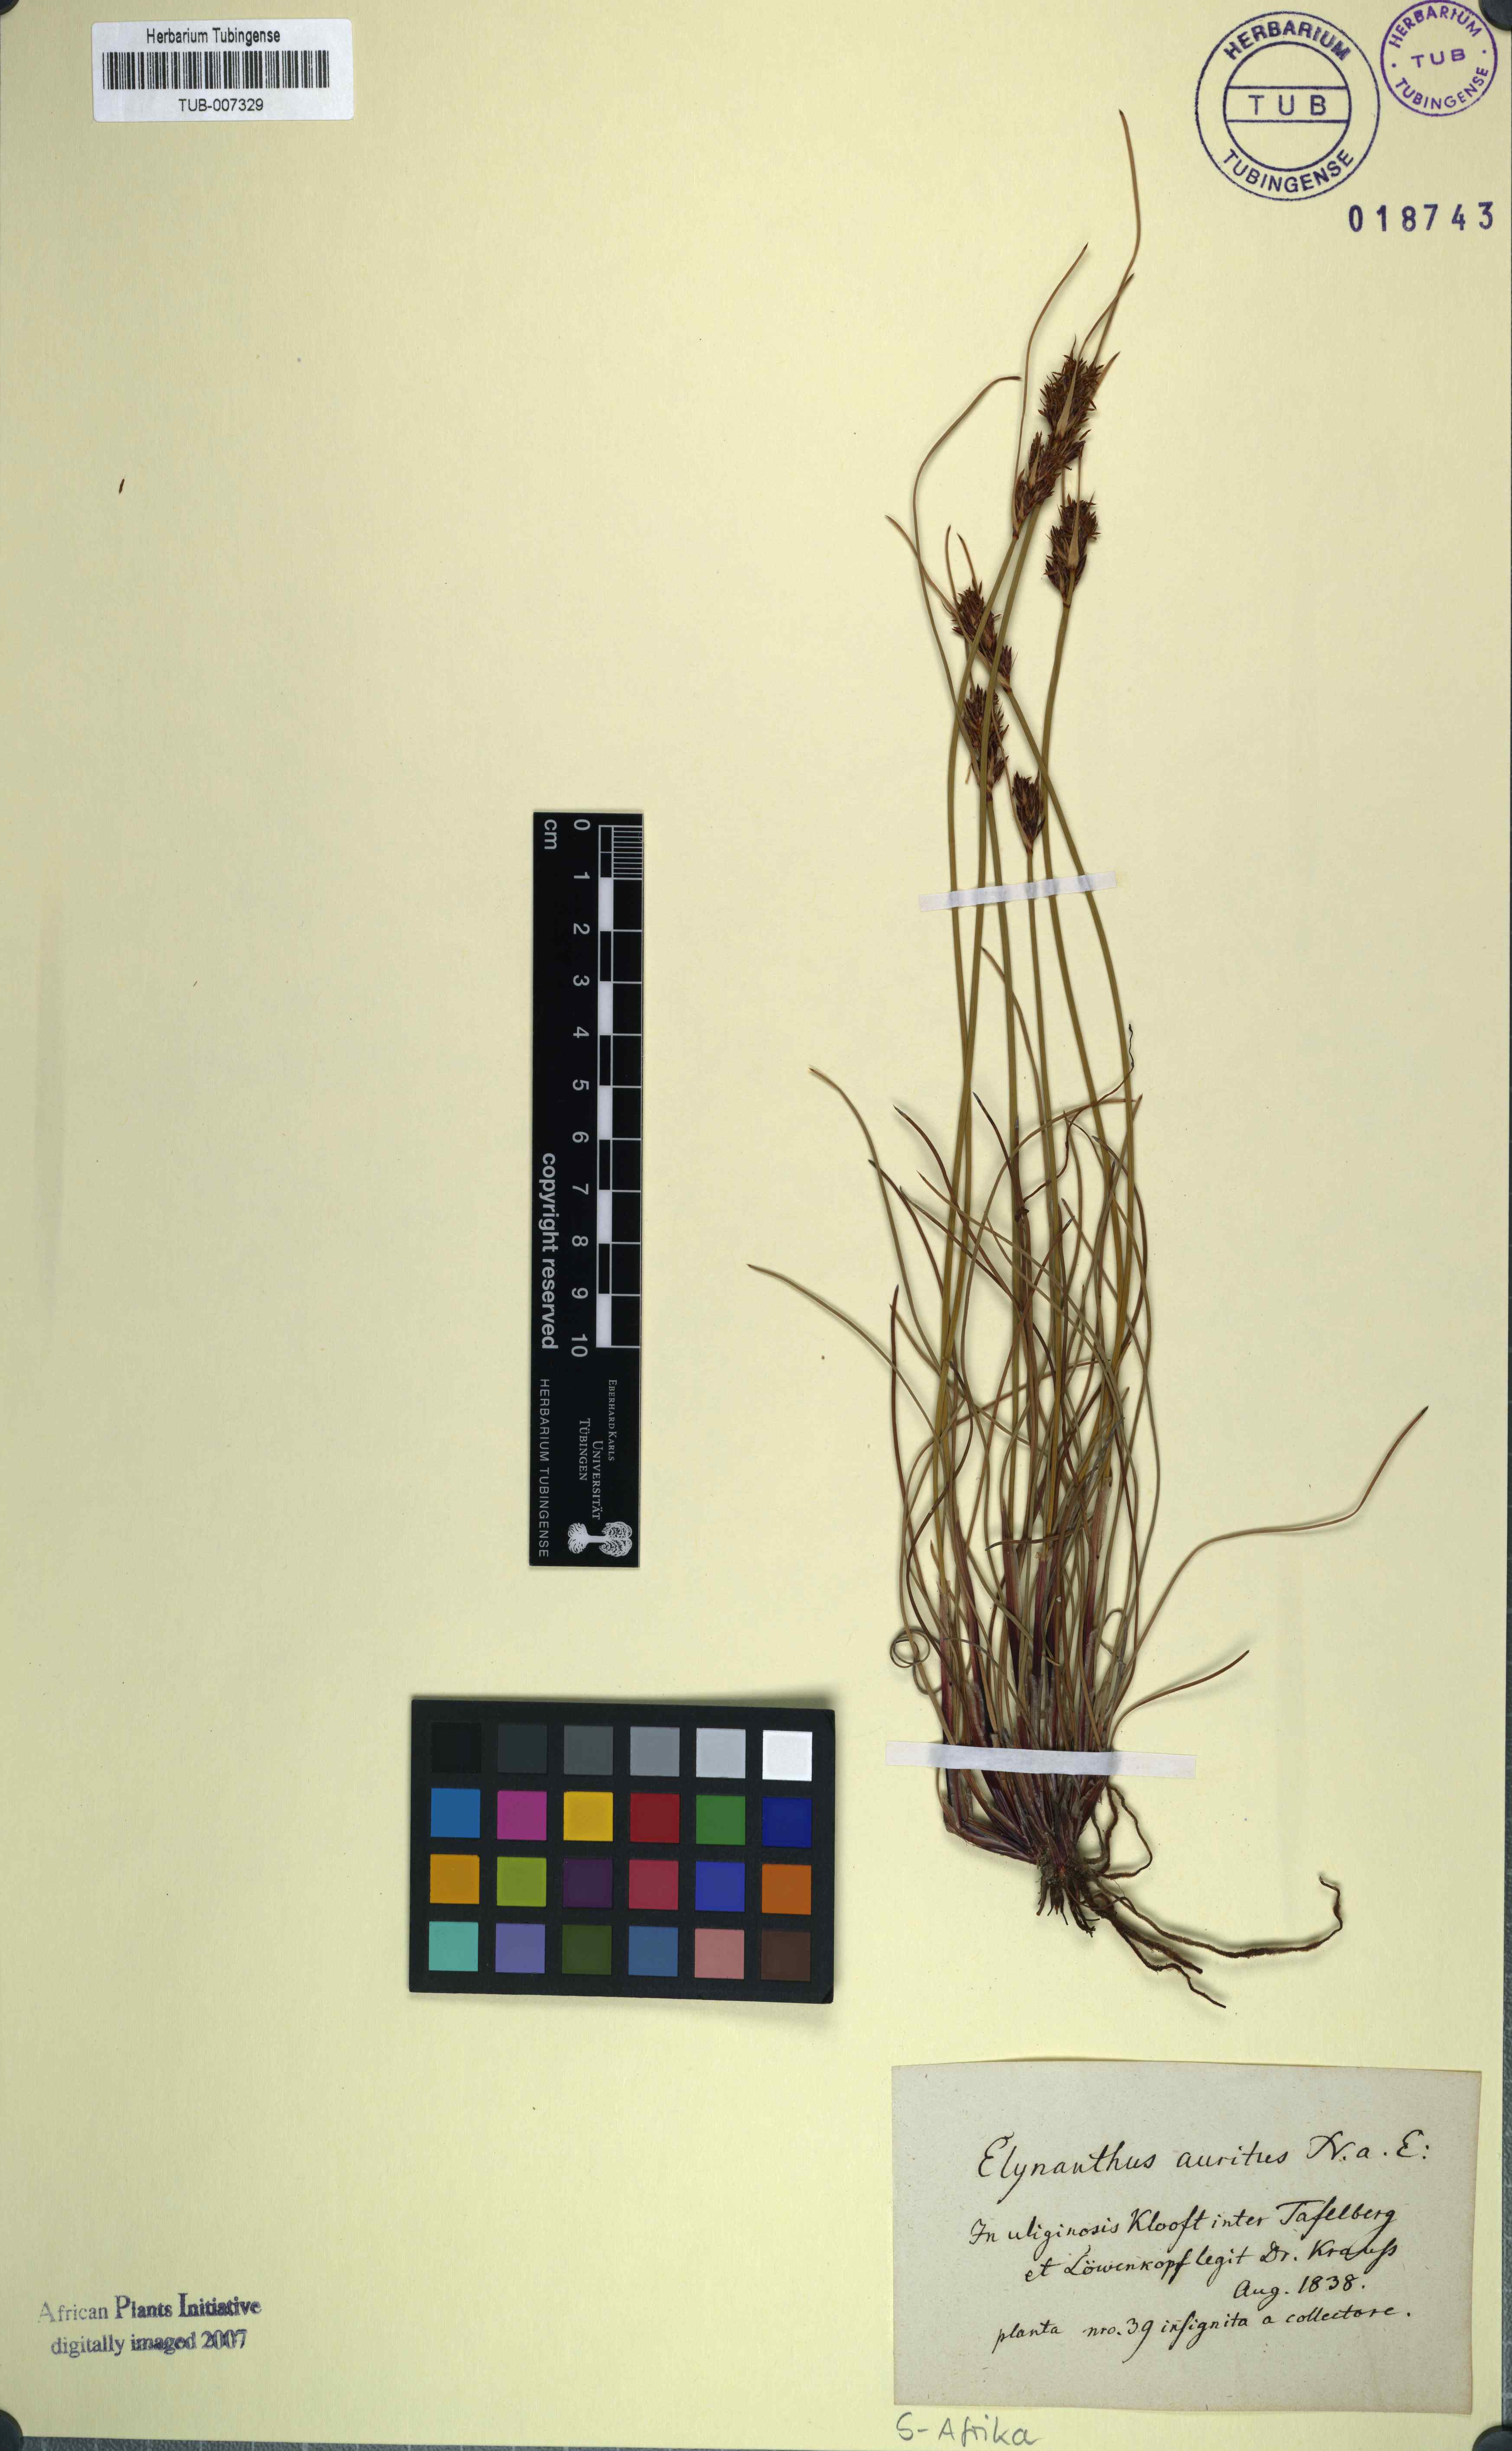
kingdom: Plantae
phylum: Tracheophyta
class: Liliopsida
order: Poales
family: Cyperaceae
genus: Schoenus
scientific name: Schoenus auritus
